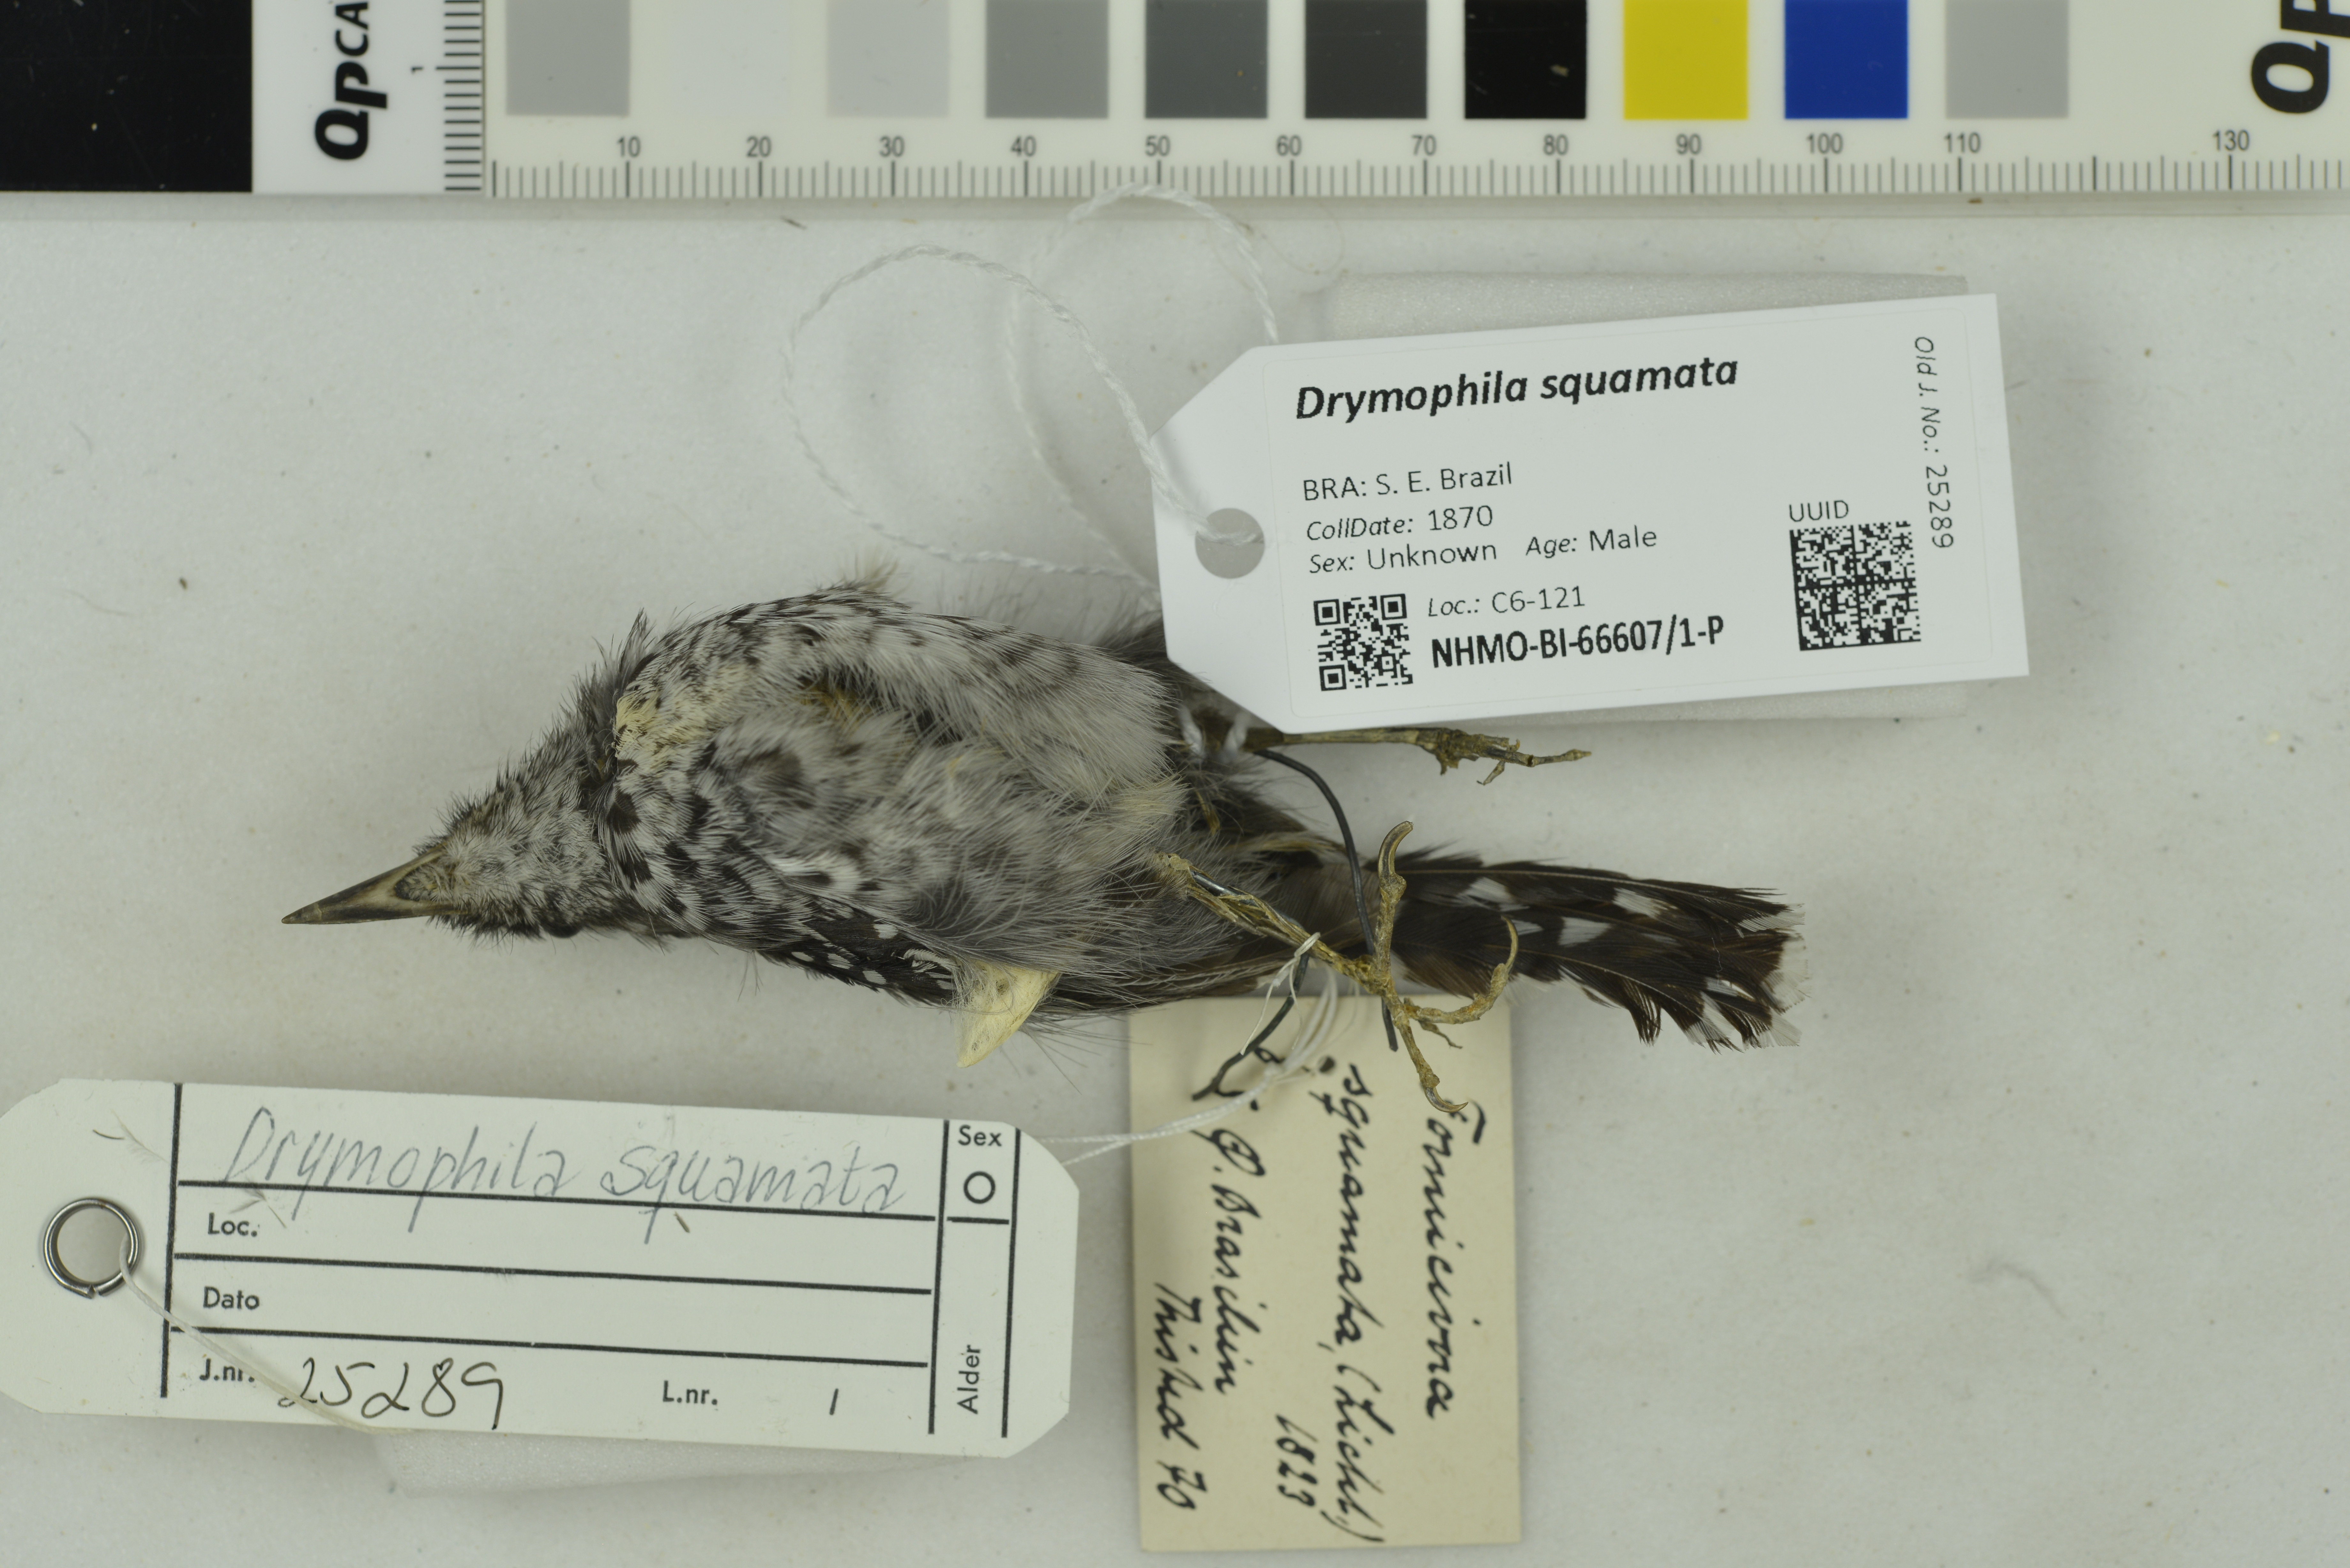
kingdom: Animalia
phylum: Chordata
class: Aves
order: Passeriformes
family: Thamnophilidae
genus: Drymophila
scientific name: Drymophila squamata
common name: Scaled antbird
